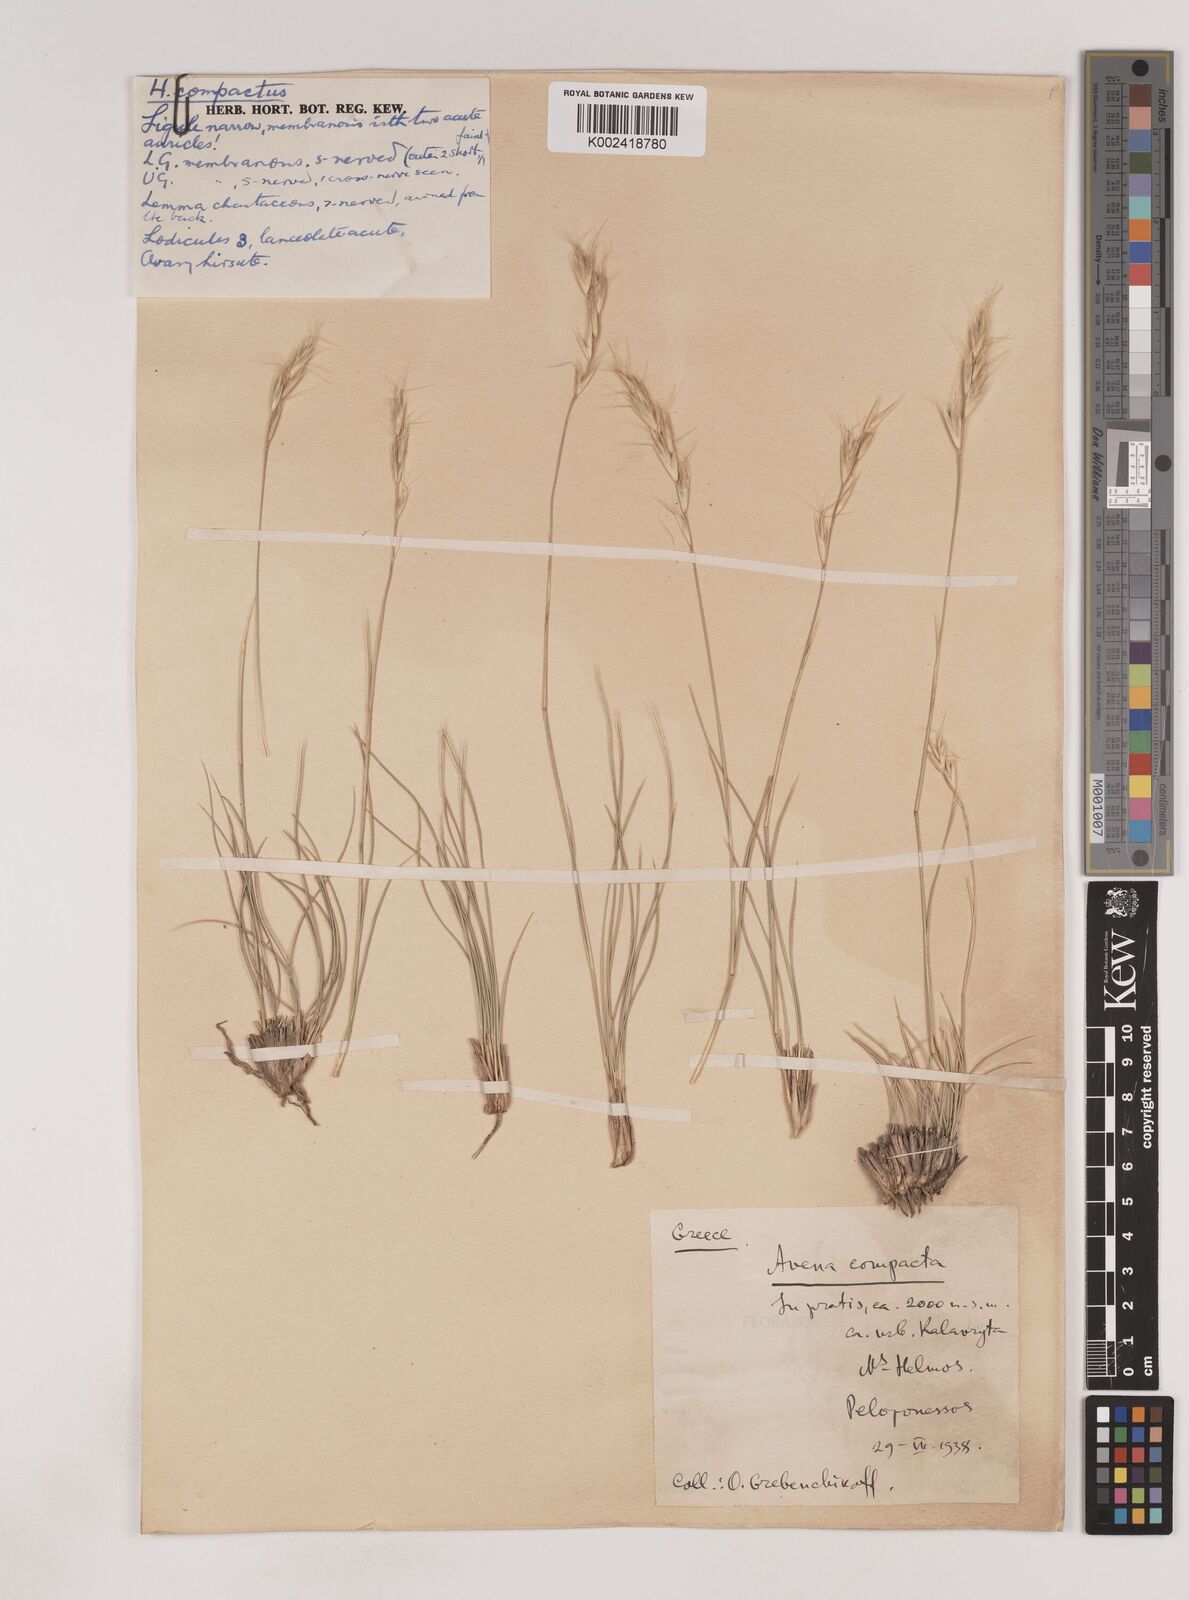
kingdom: Plantae
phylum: Tracheophyta
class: Liliopsida
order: Poales
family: Poaceae
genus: Danthoniastrum
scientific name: Danthoniastrum compactum
